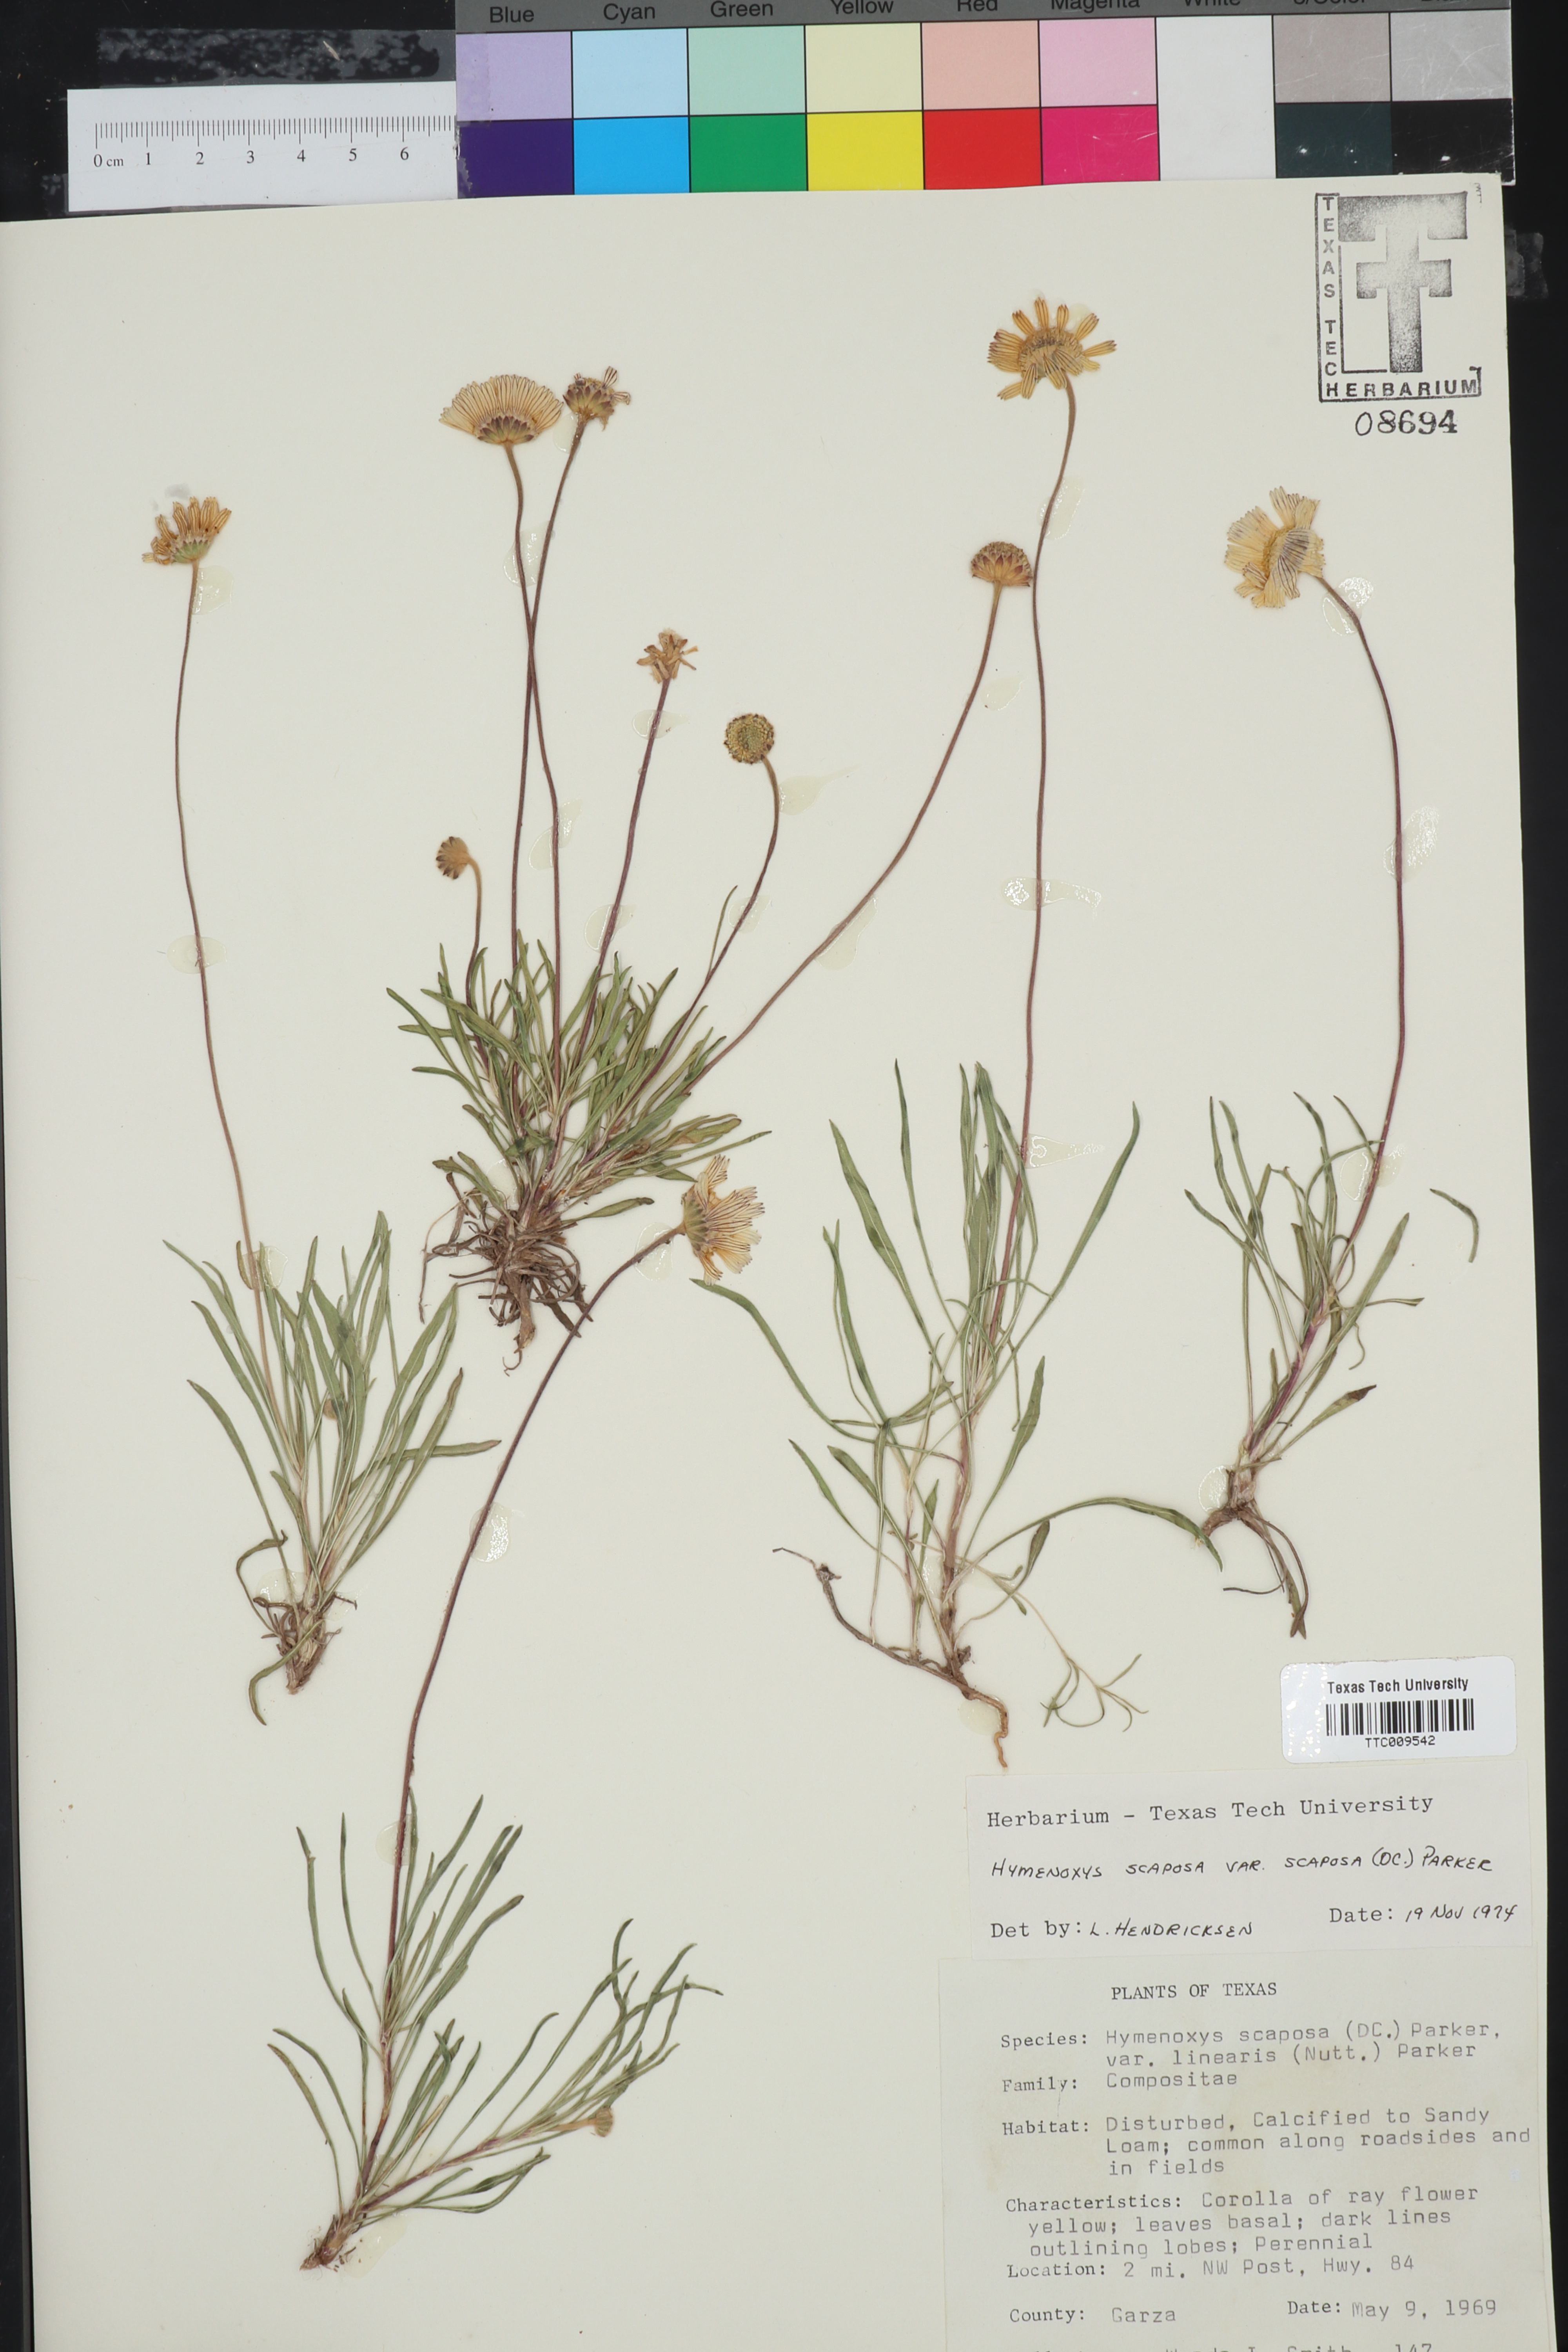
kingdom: Plantae
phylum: Tracheophyta
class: Magnoliopsida
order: Asterales
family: Asteraceae
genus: Tetraneuris
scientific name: Tetraneuris scaposa
